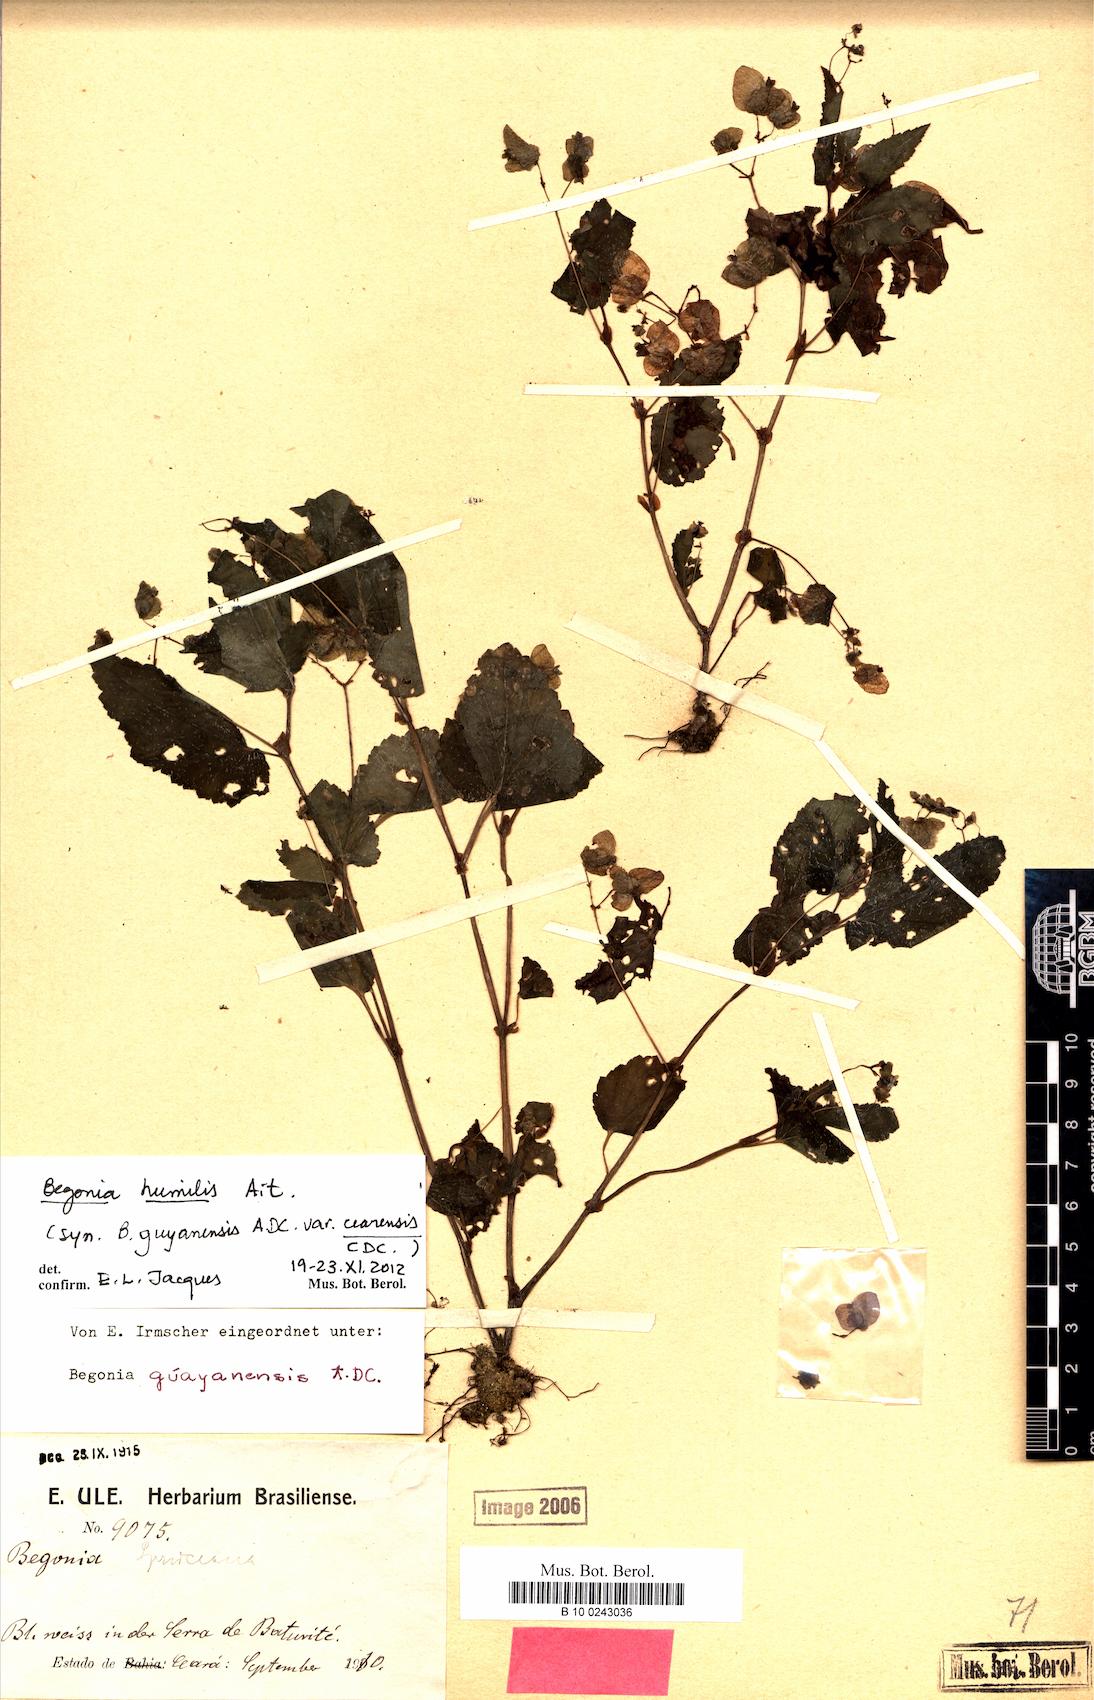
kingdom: Plantae
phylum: Tracheophyta
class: Magnoliopsida
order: Cucurbitales
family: Begoniaceae
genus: Begonia
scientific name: Begonia humilis
